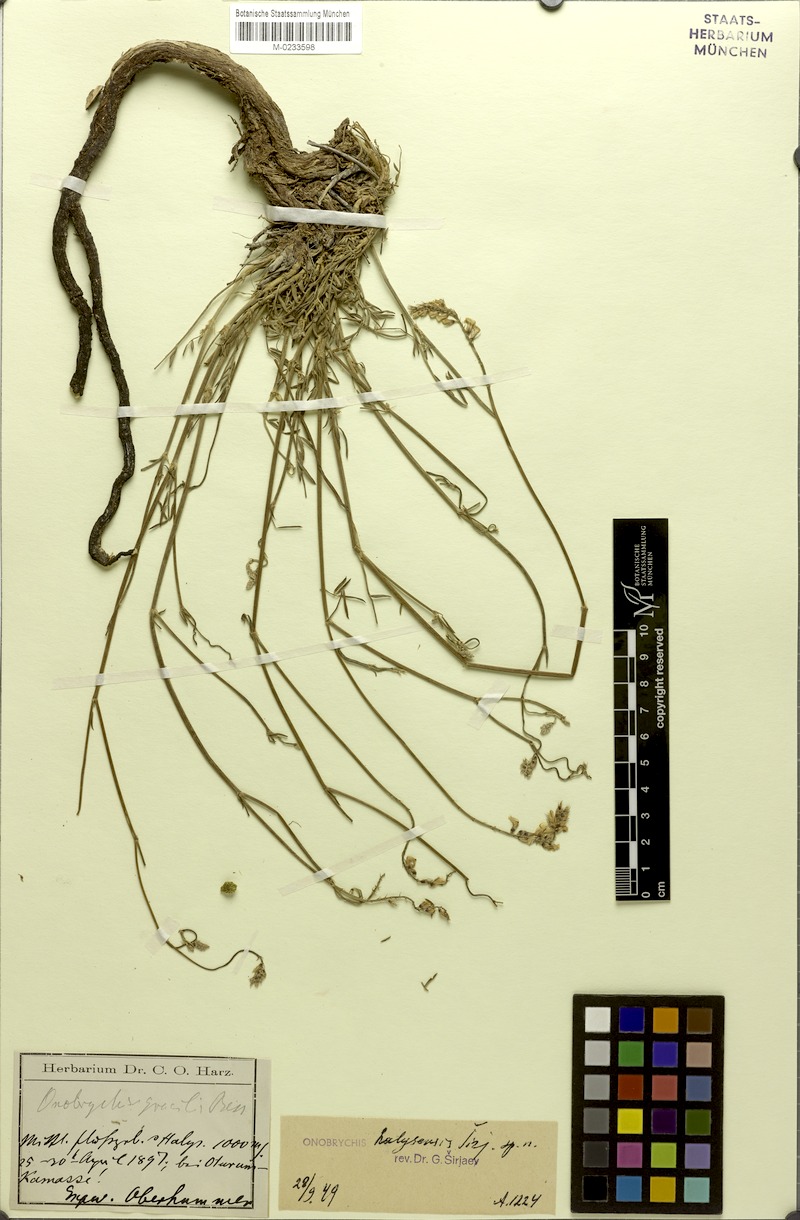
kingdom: Plantae
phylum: Tracheophyta
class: Magnoliopsida
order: Fabales
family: Fabaceae
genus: Onobrychis
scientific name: Onobrychis halysensis
